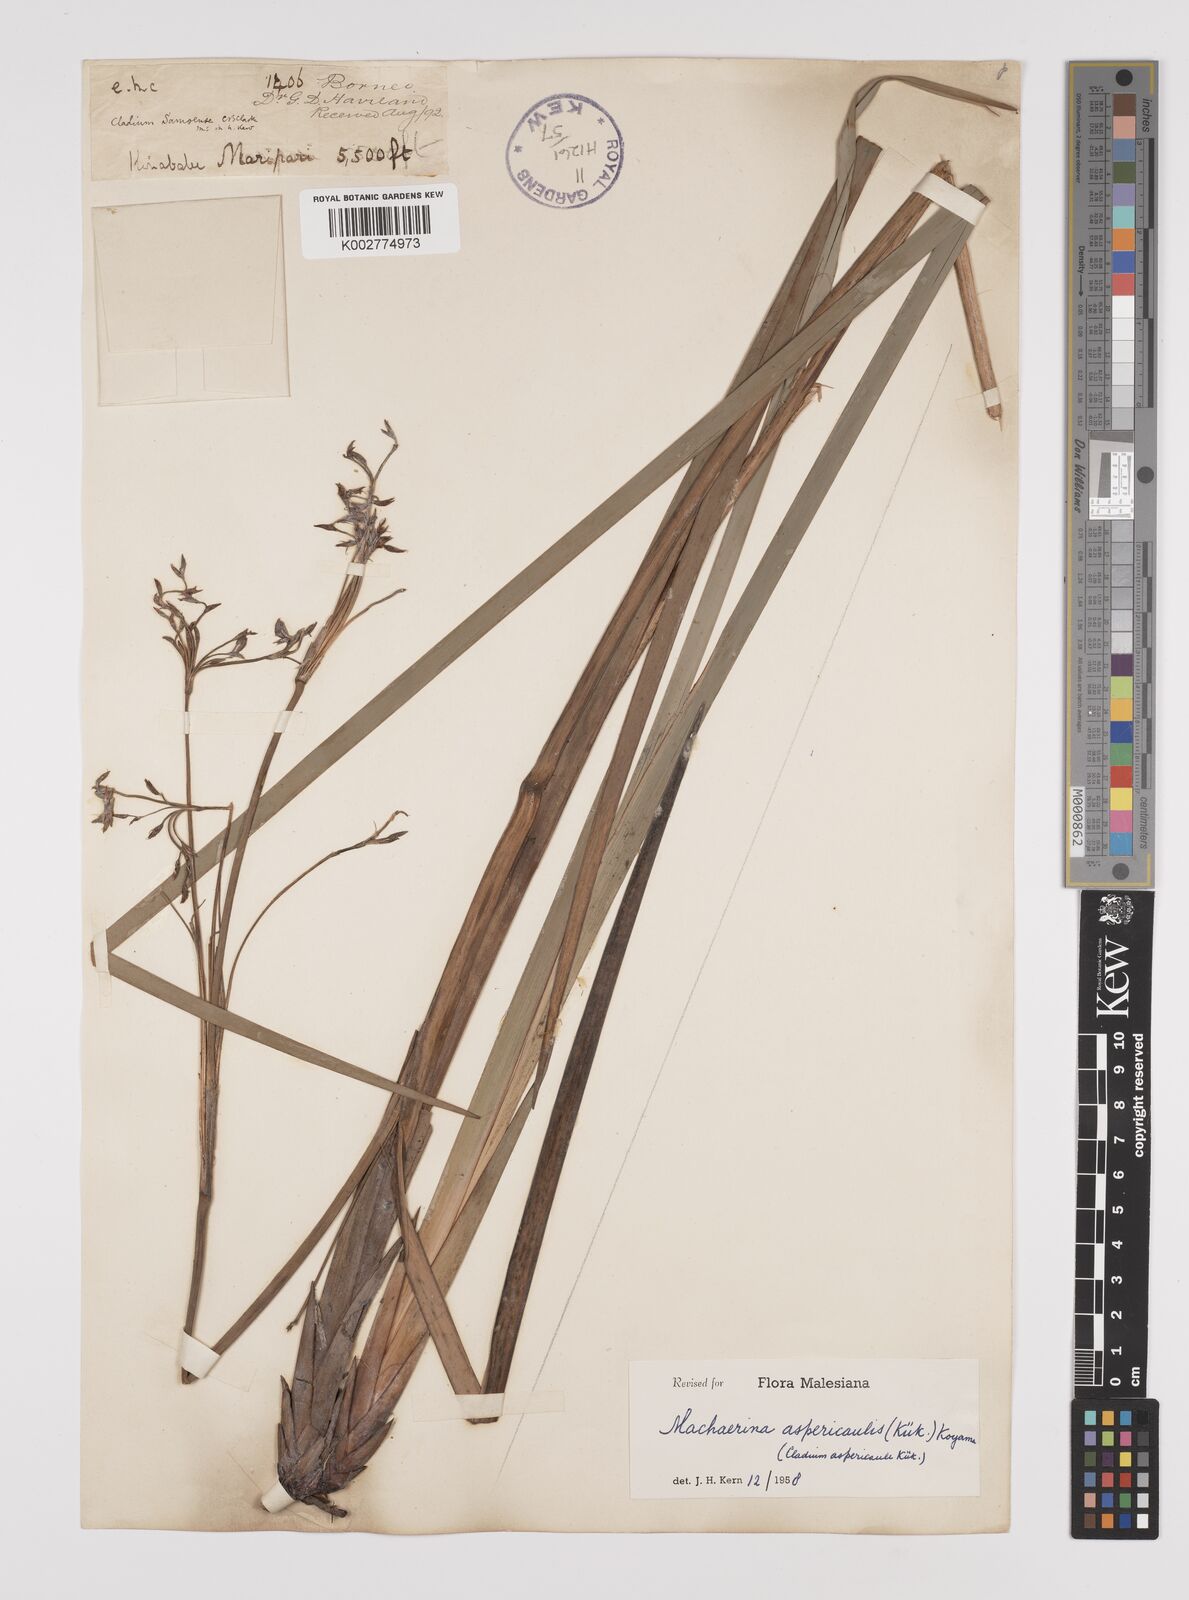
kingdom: Plantae
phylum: Tracheophyta
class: Liliopsida
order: Poales
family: Cyperaceae
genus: Machaerina
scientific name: Machaerina aspericaulis
